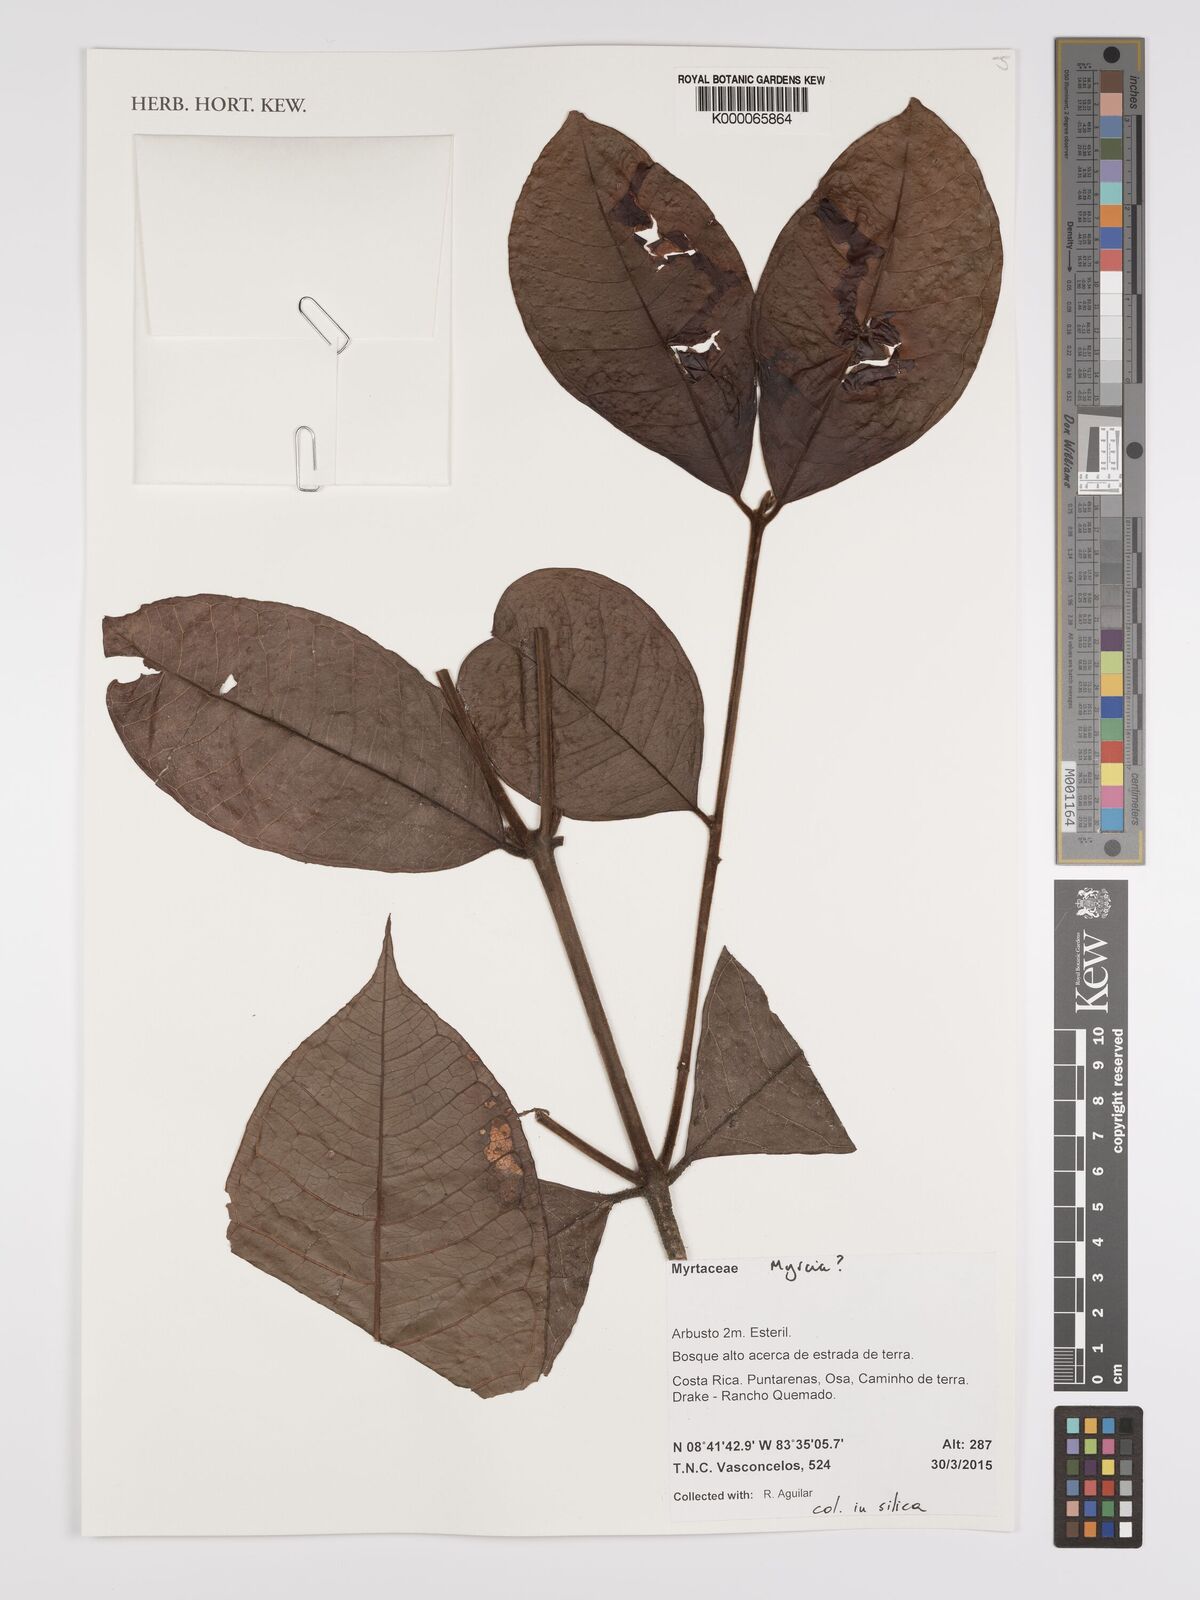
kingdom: Plantae
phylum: Tracheophyta
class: Magnoliopsida
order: Myrtales
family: Myrtaceae
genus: Myrcia
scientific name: Myrcia
